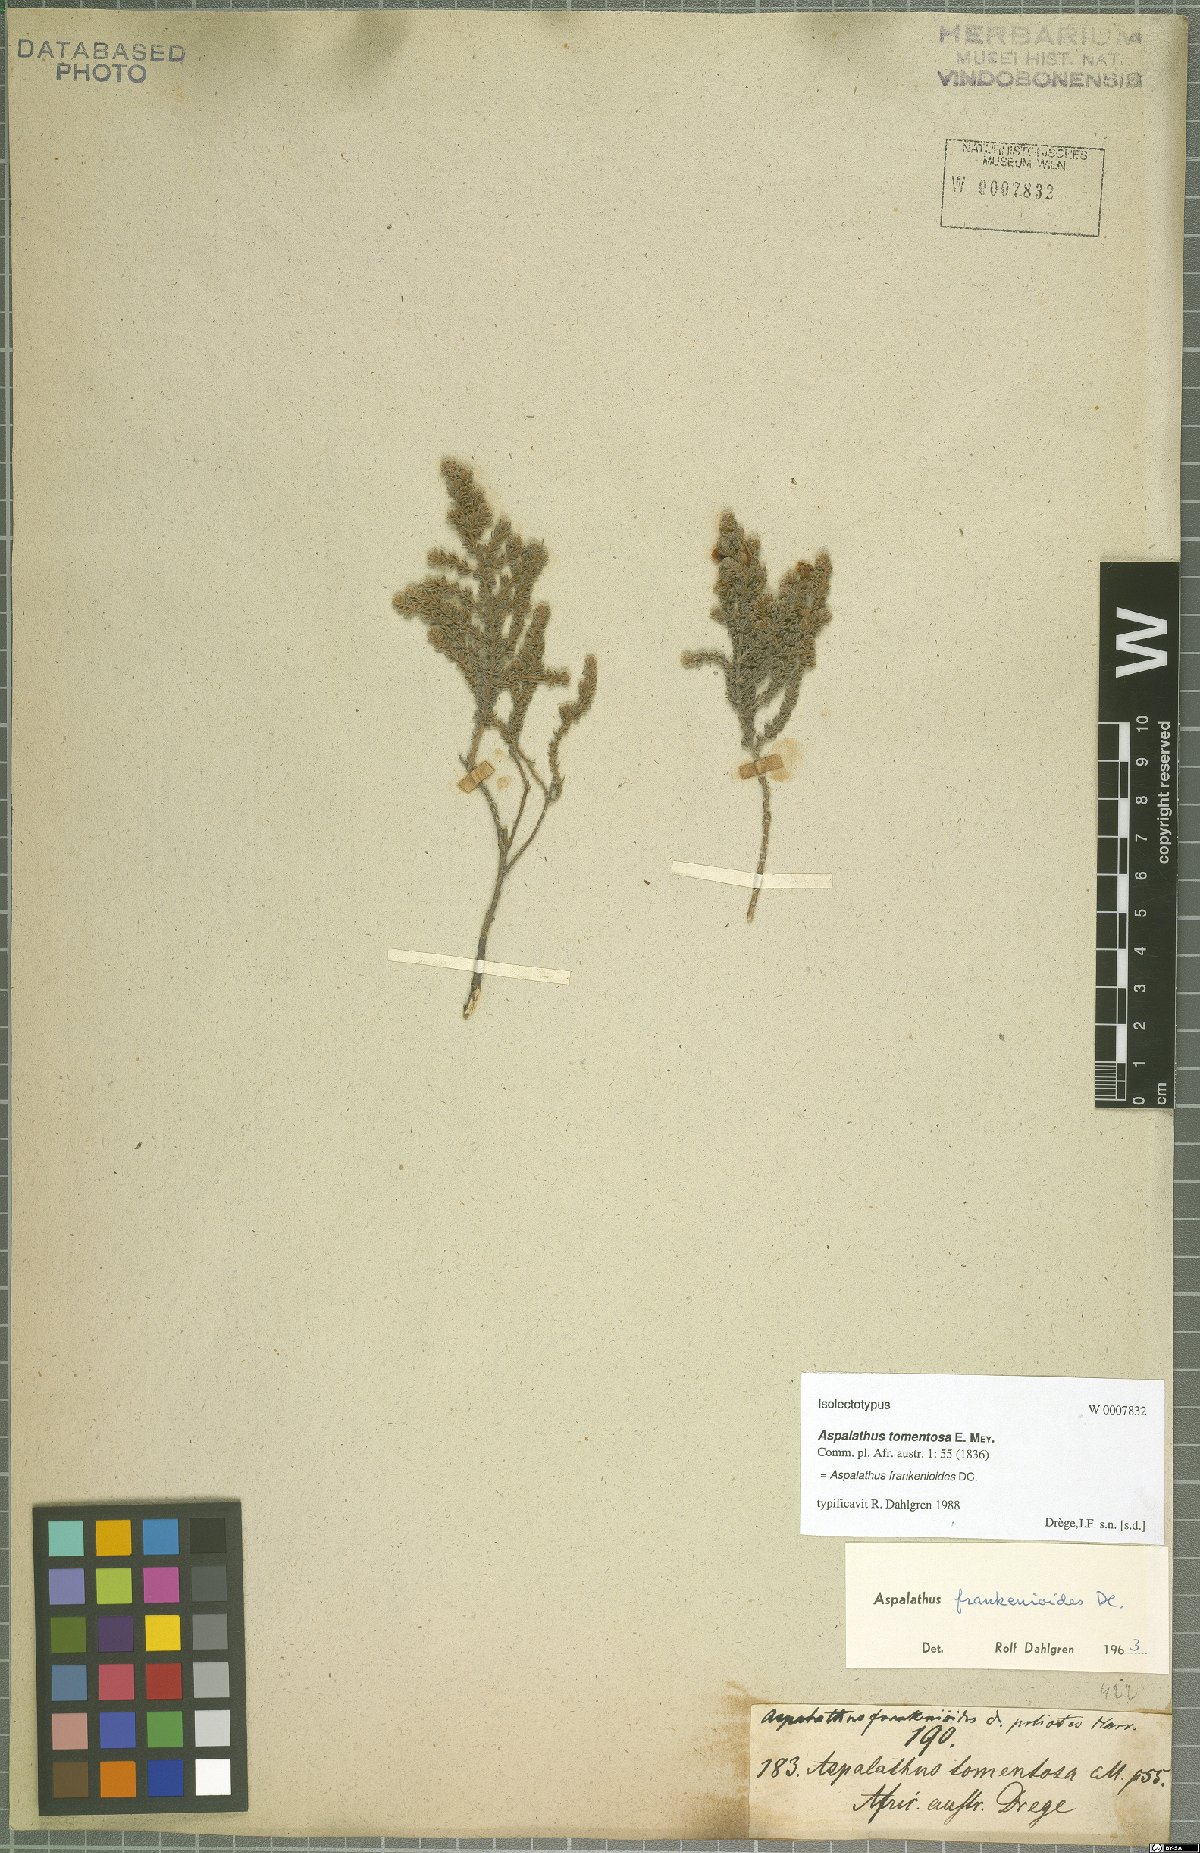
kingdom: Plantae
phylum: Tracheophyta
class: Magnoliopsida
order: Fabales
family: Fabaceae
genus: Aspalathus
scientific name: Aspalathus frankenioides
